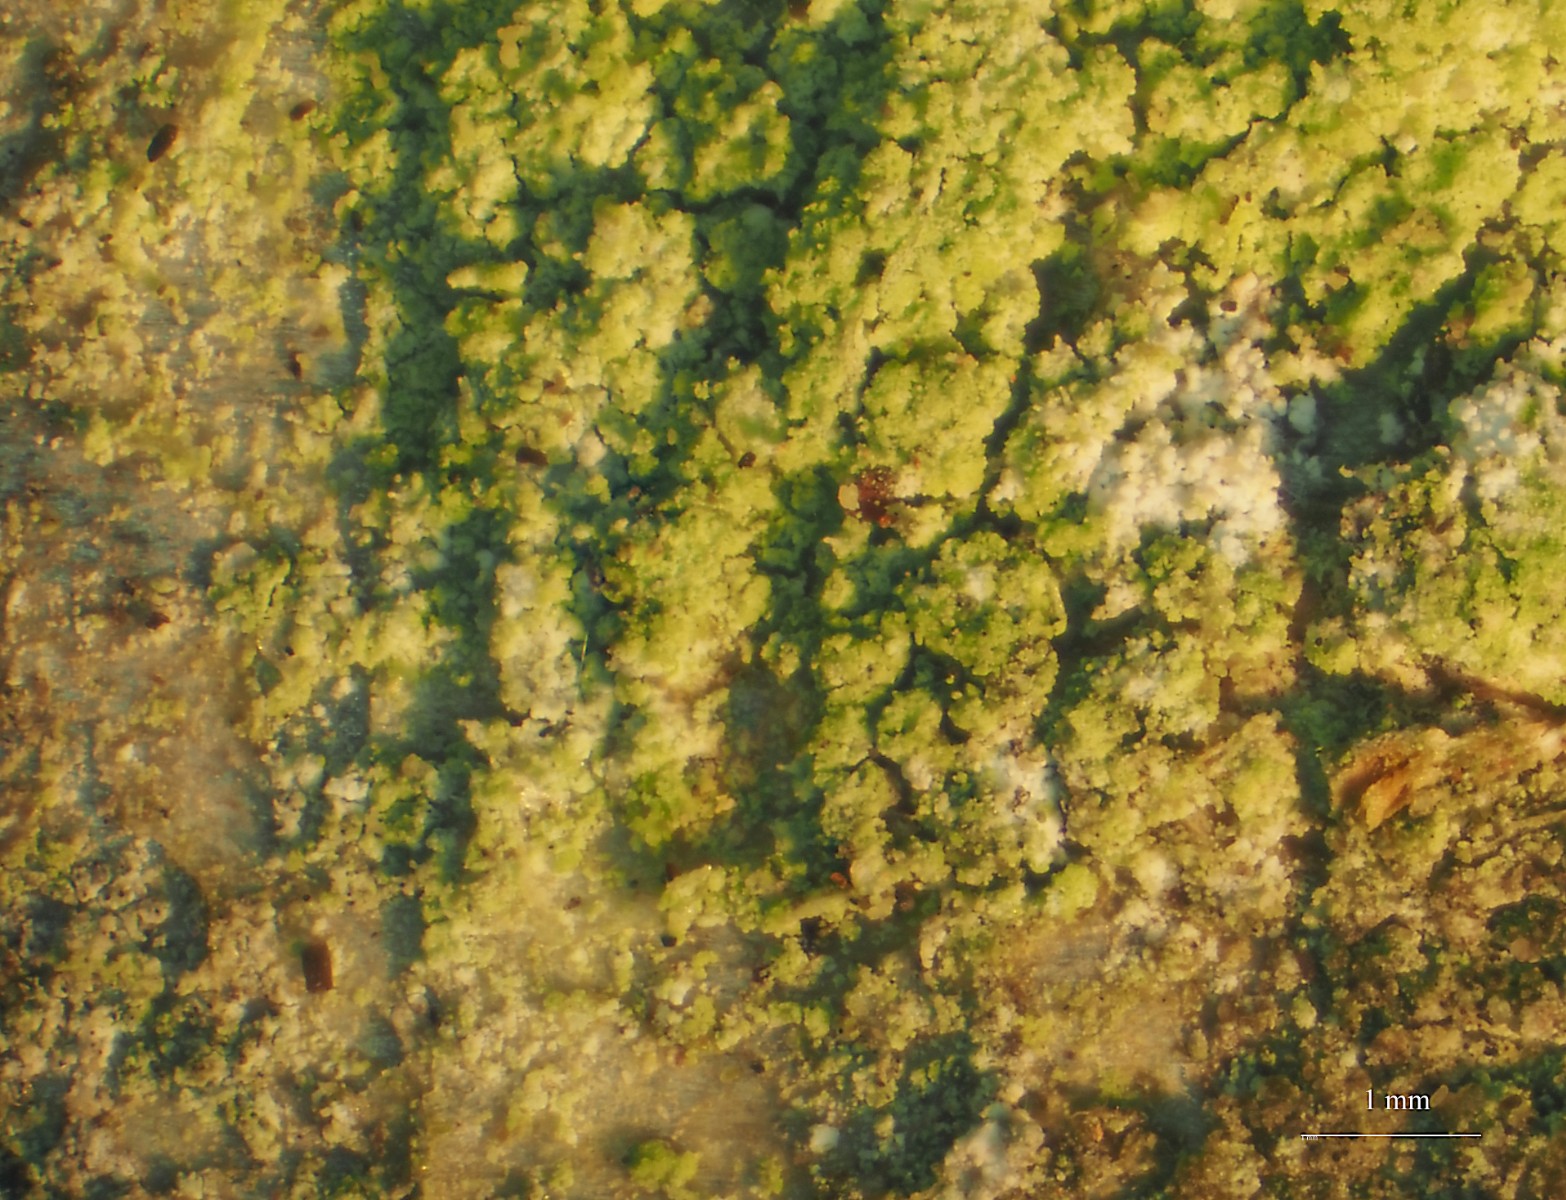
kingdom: Fungi
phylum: Ascomycota
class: Lecanoromycetes
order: Lecanorales
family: Byssolomataceae
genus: Aquacidia
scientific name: Aquacidia viridifarinosa
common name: grønmelet tensporelav
